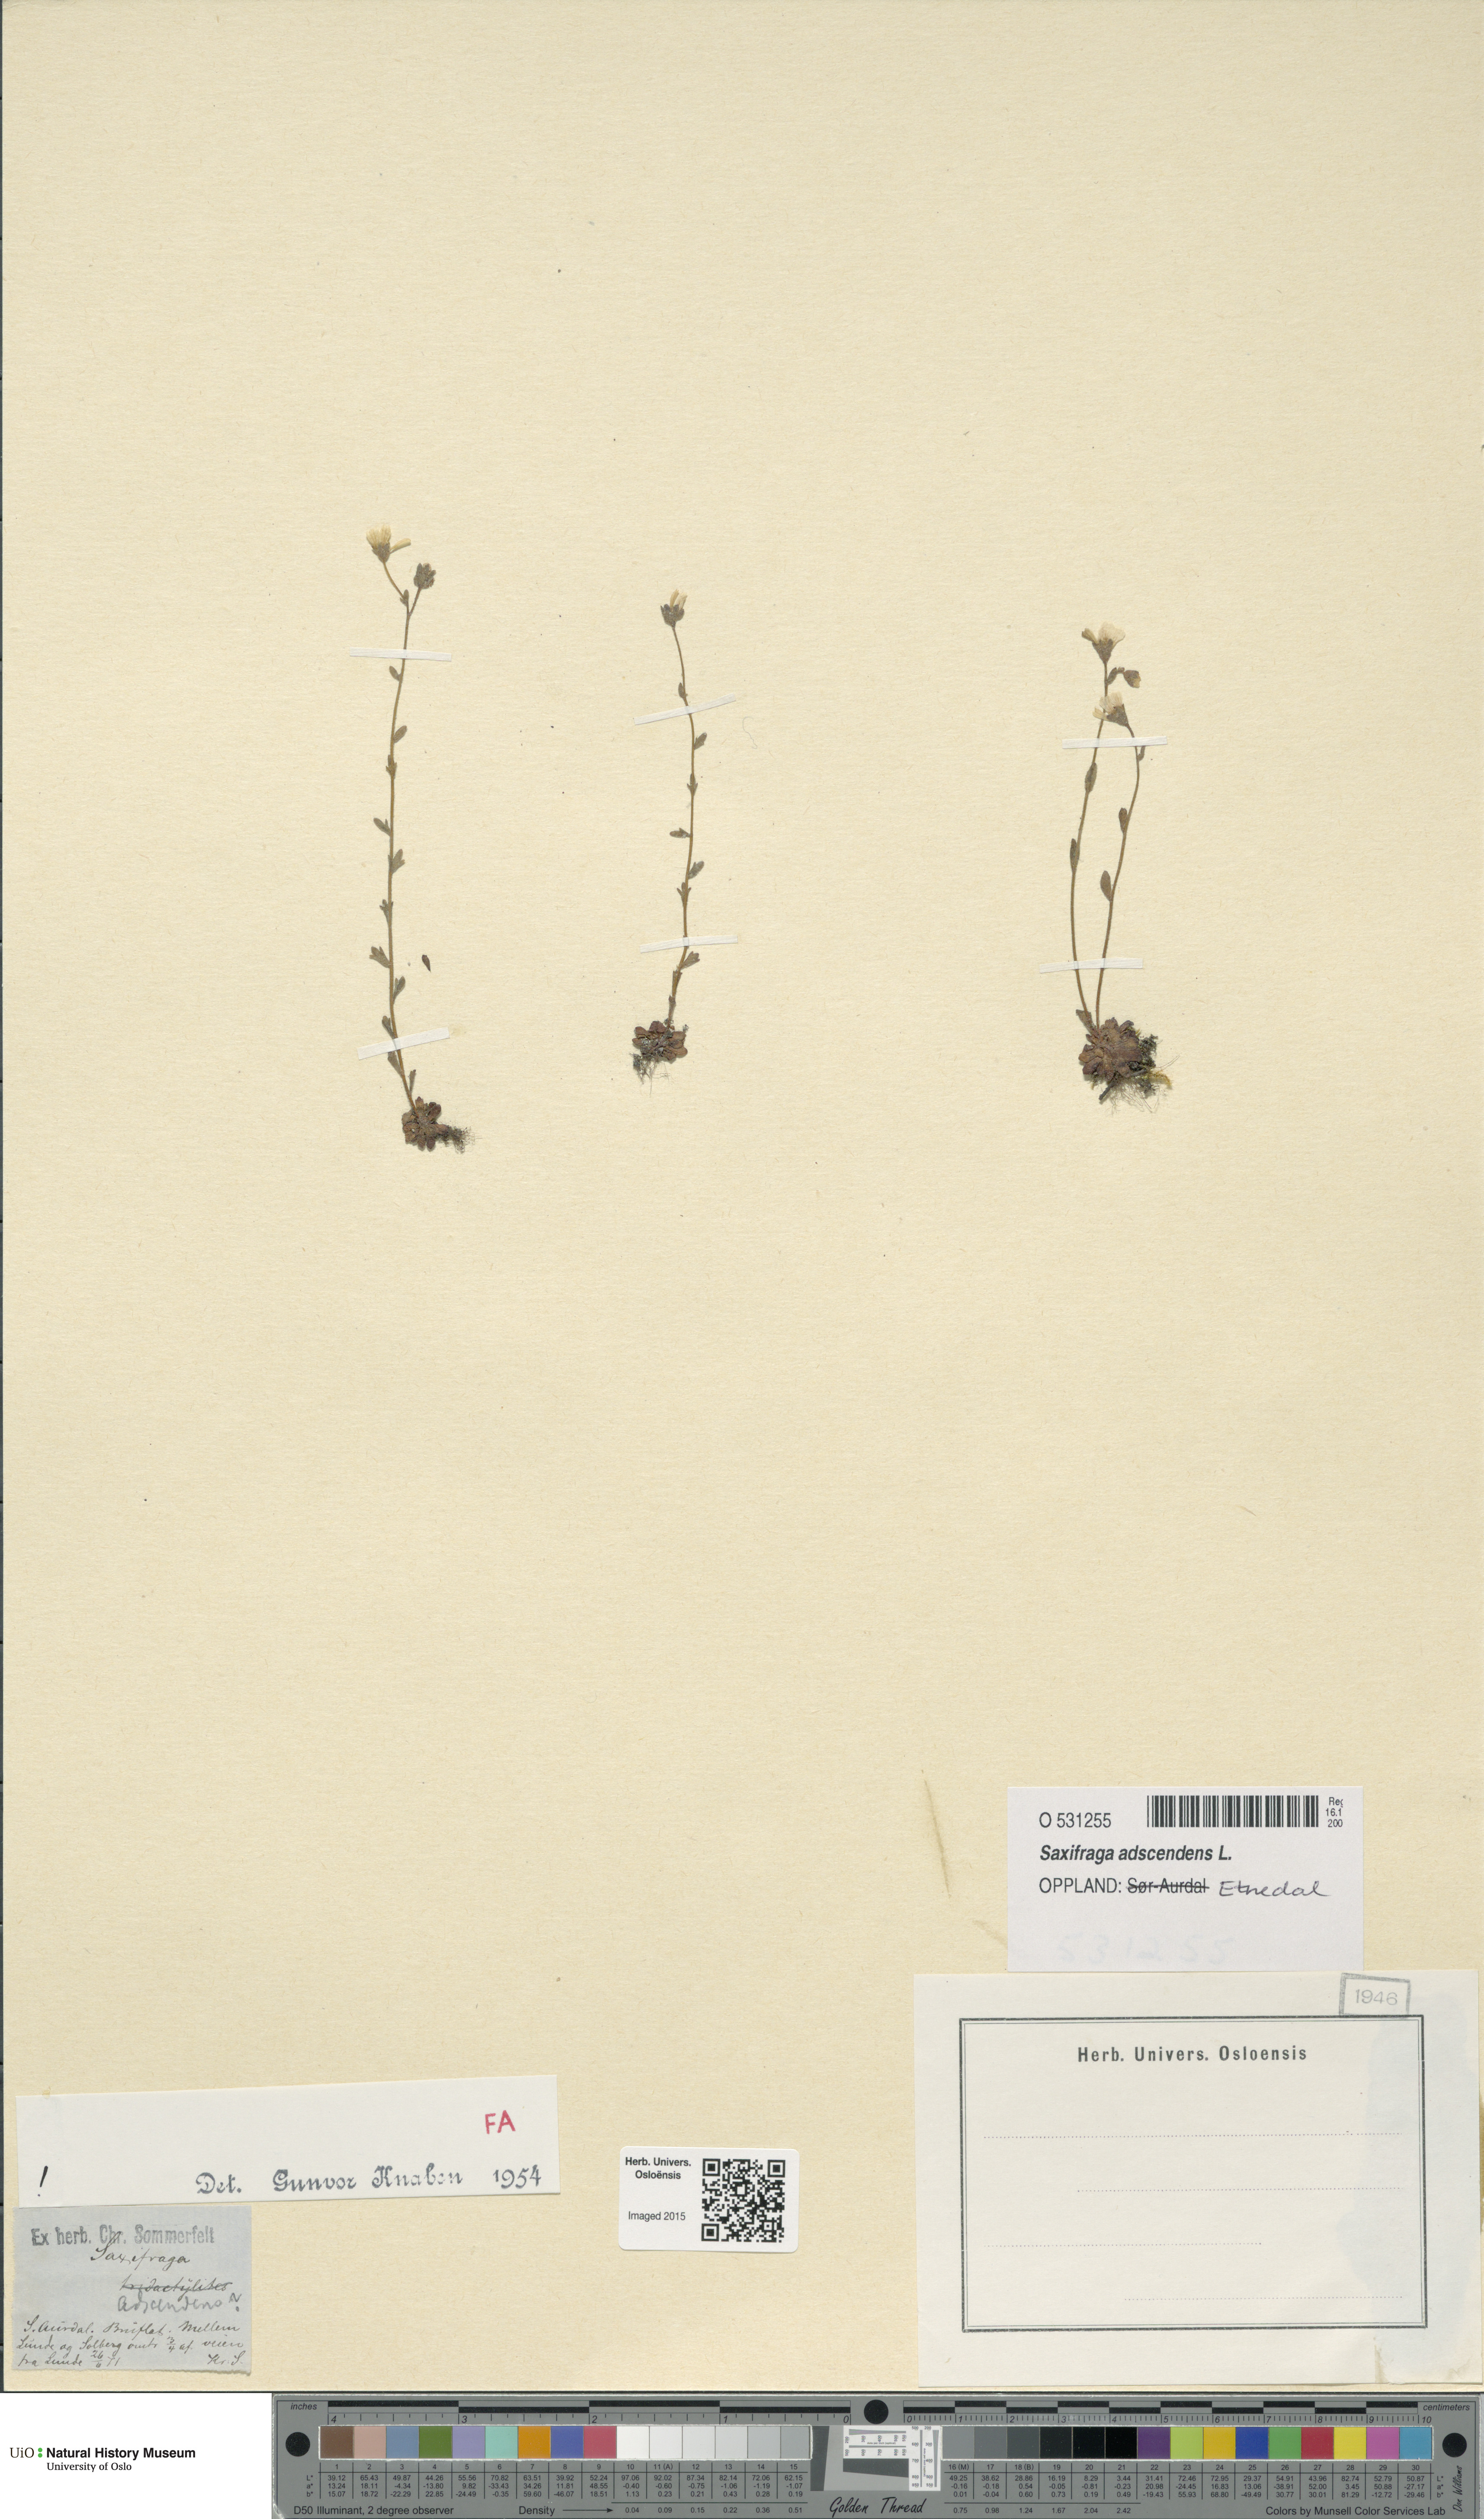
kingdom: Plantae
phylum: Tracheophyta
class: Magnoliopsida
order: Saxifragales
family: Saxifragaceae
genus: Saxifraga
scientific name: Saxifraga adscendens
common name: Ascending saxifrage
